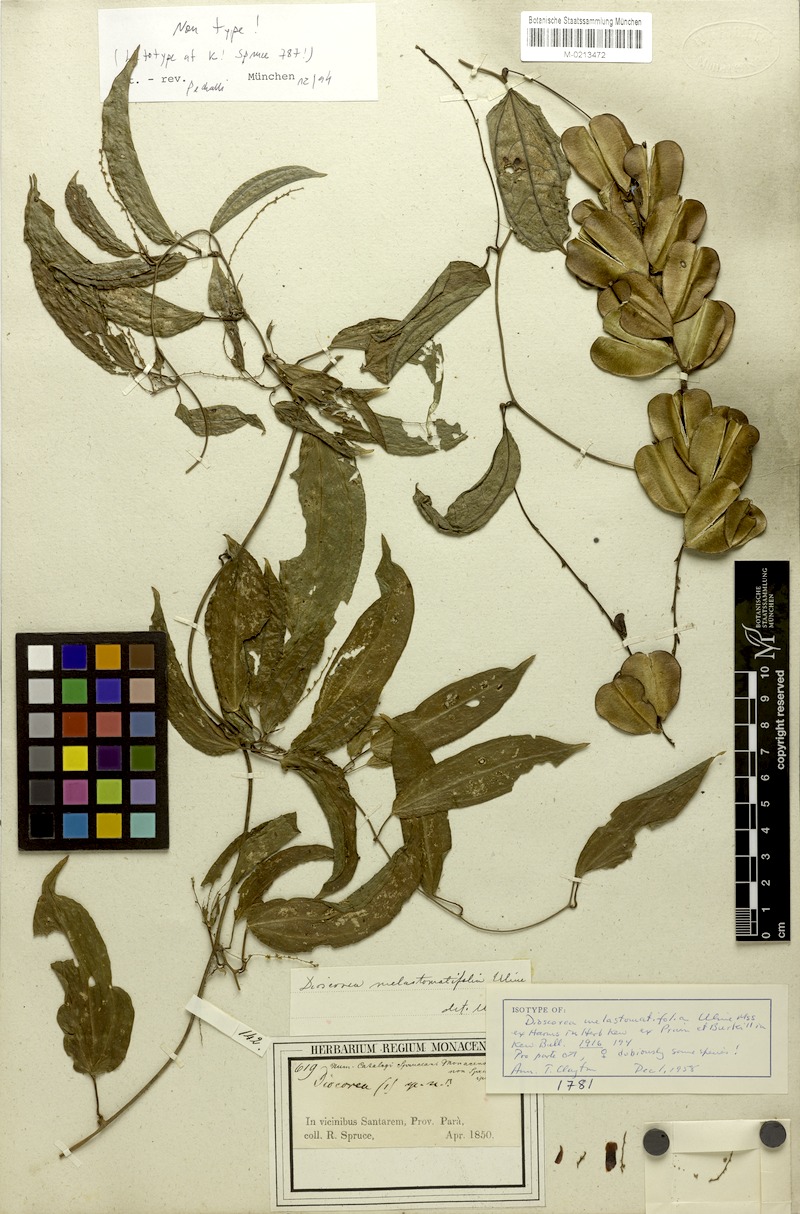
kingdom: Plantae
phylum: Tracheophyta
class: Liliopsida
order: Dioscoreales
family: Dioscoreaceae
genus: Dioscorea
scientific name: Dioscorea melastomatifolia
